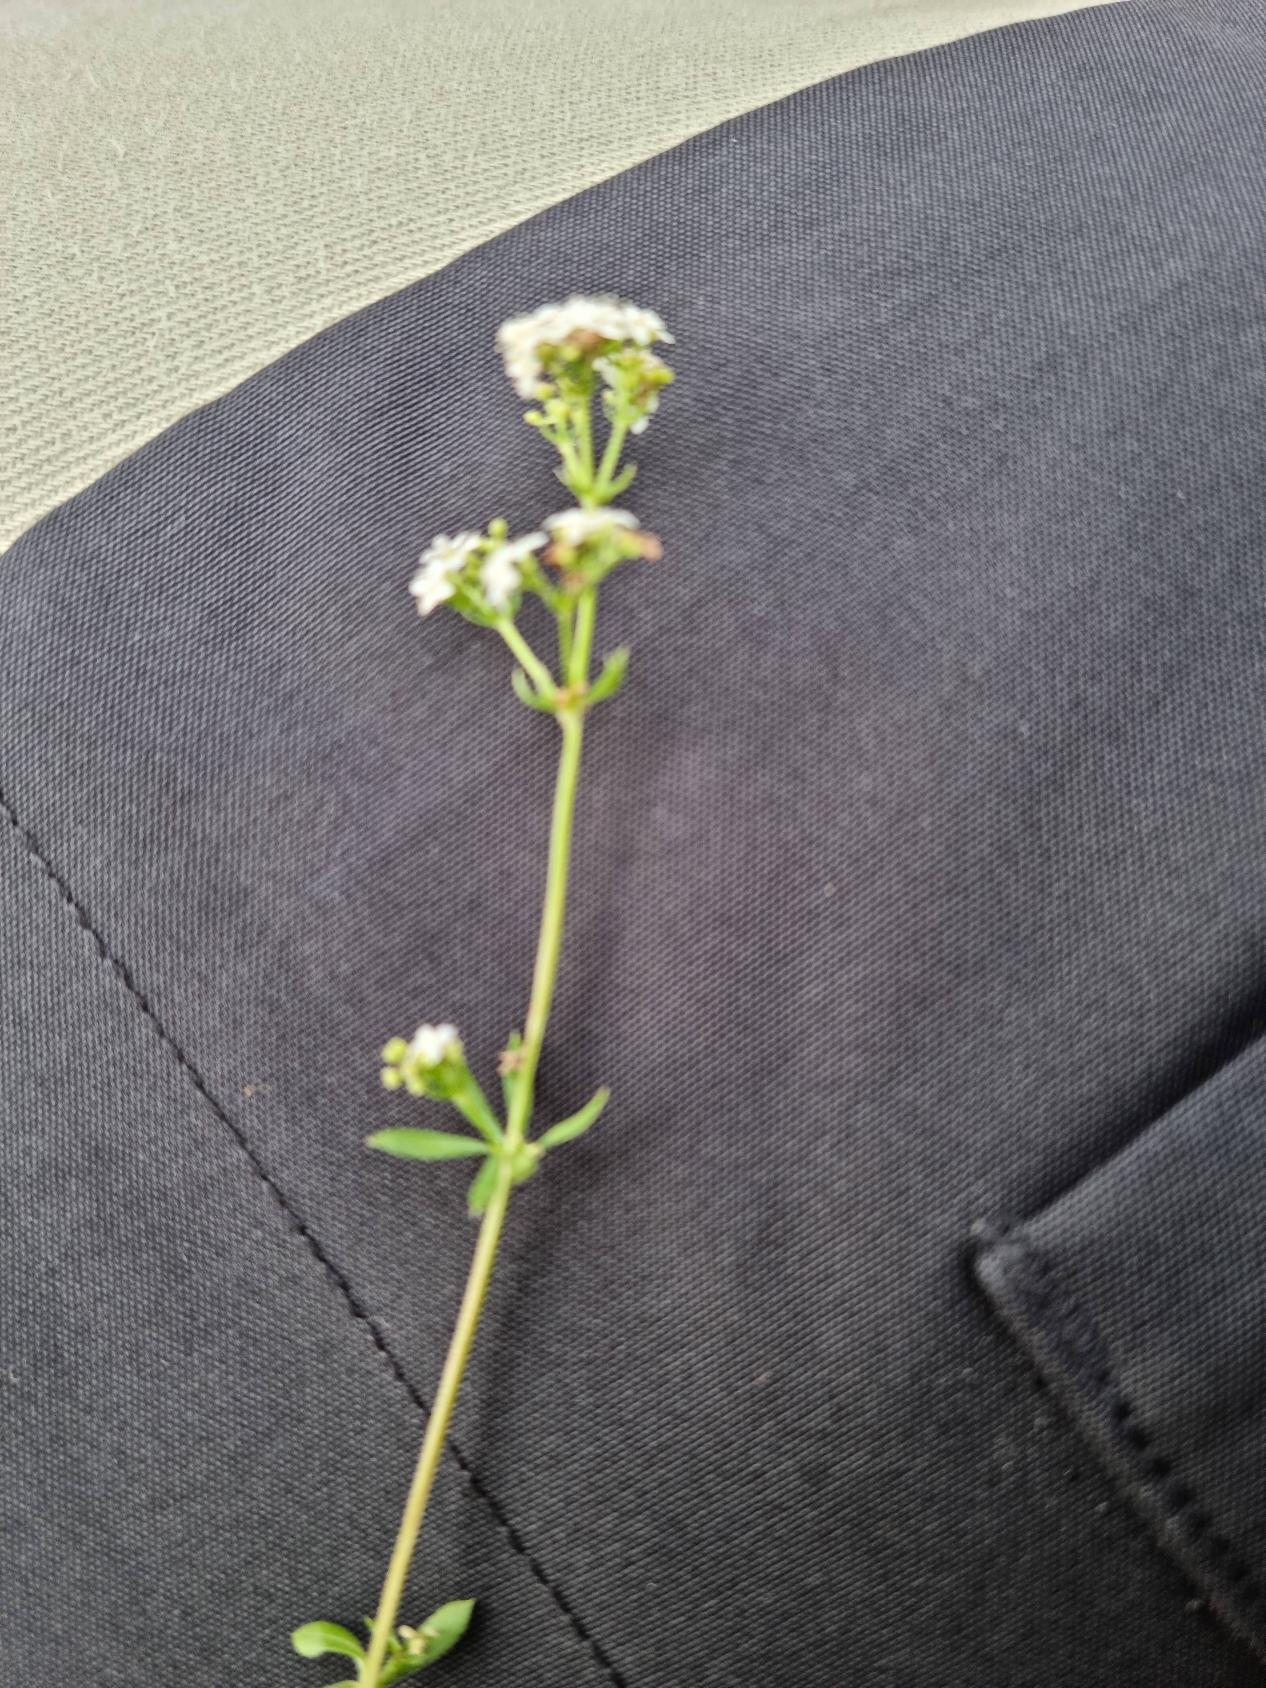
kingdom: Plantae
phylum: Tracheophyta
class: Magnoliopsida
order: Gentianales
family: Rubiaceae
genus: Galium
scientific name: Galium saxatile
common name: Lyng-snerre
